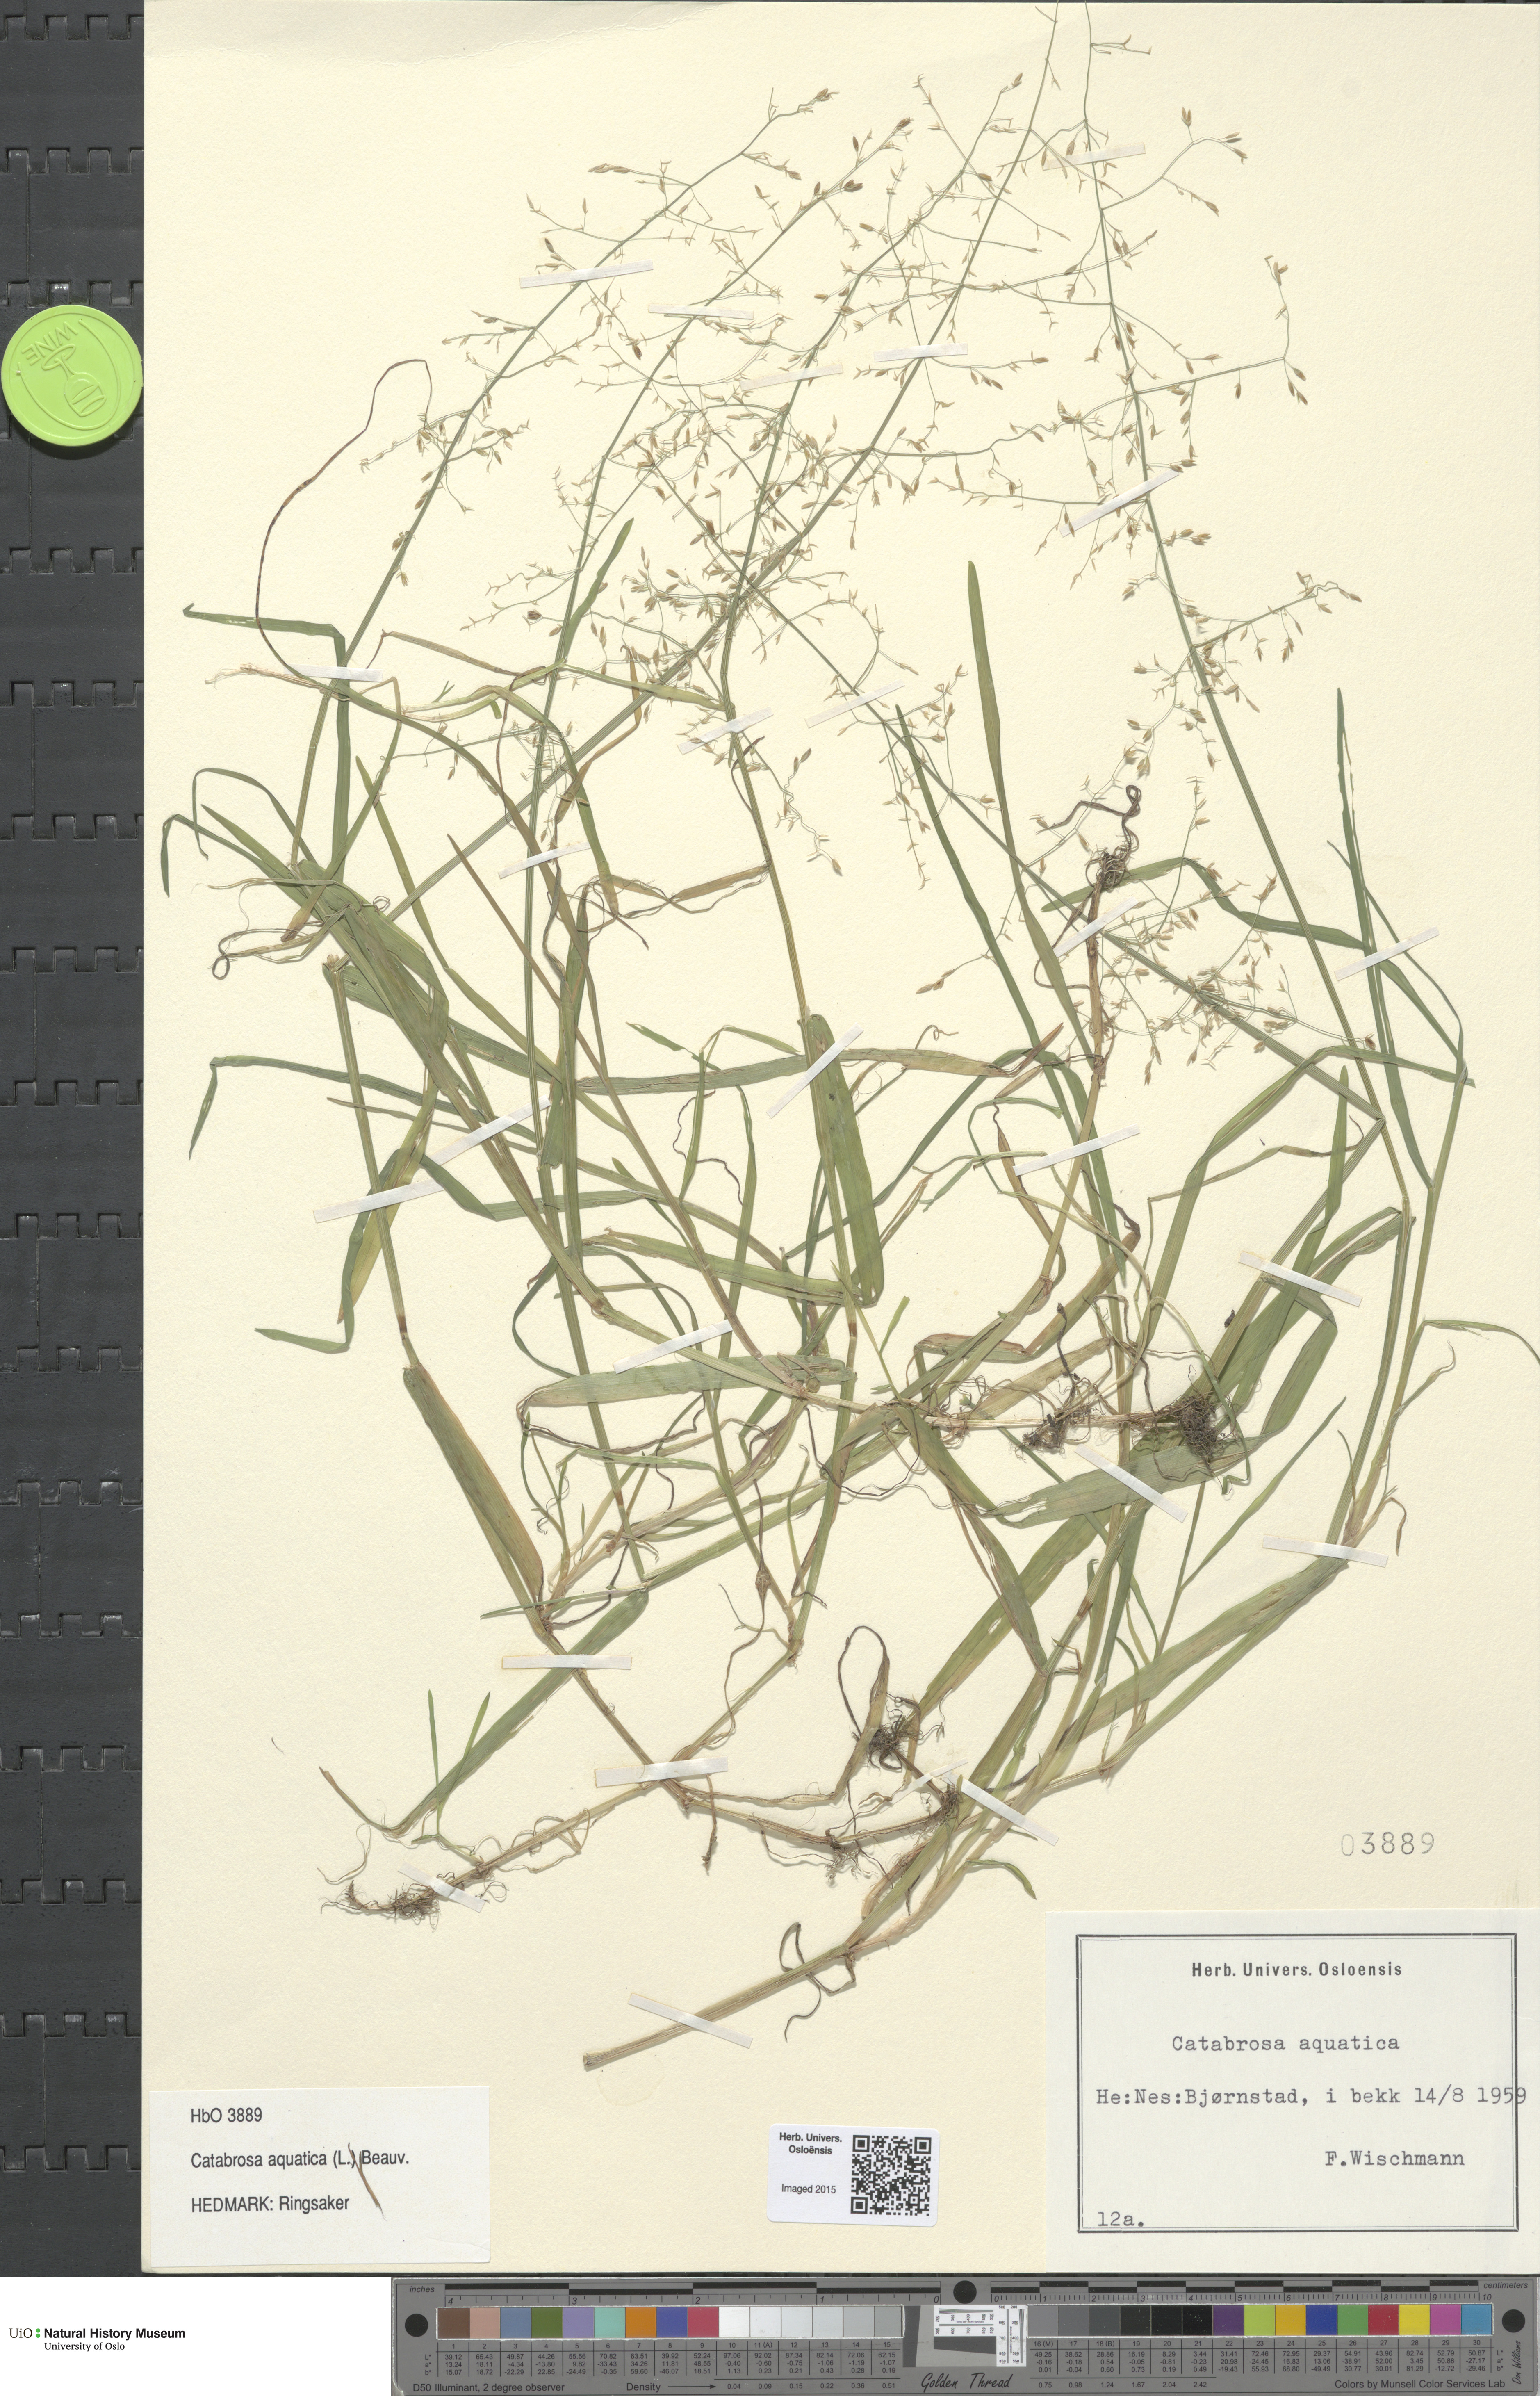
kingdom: Plantae
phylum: Tracheophyta
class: Liliopsida
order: Poales
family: Poaceae
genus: Catabrosa
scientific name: Catabrosa aquatica
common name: Whorl-grass
